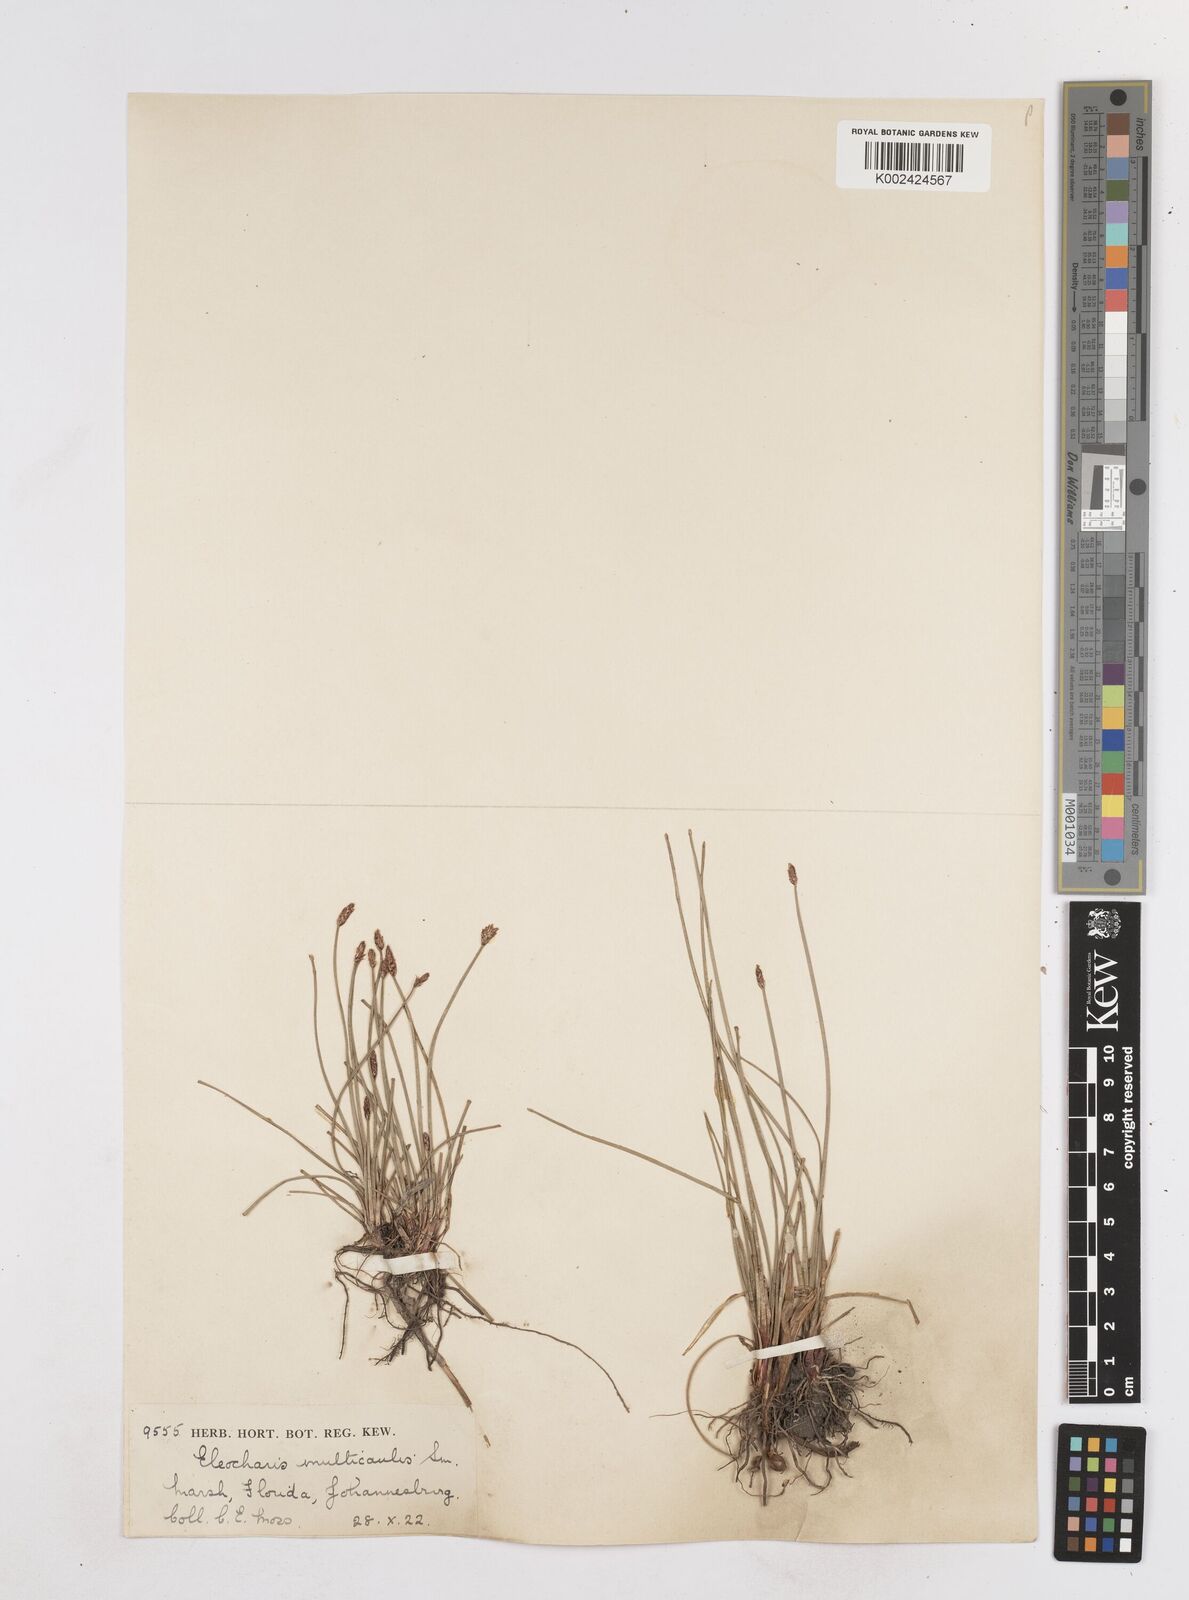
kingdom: Plantae
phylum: Tracheophyta
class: Liliopsida
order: Poales
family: Cyperaceae
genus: Eleocharis
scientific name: Eleocharis palustris
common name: Common spike-rush
